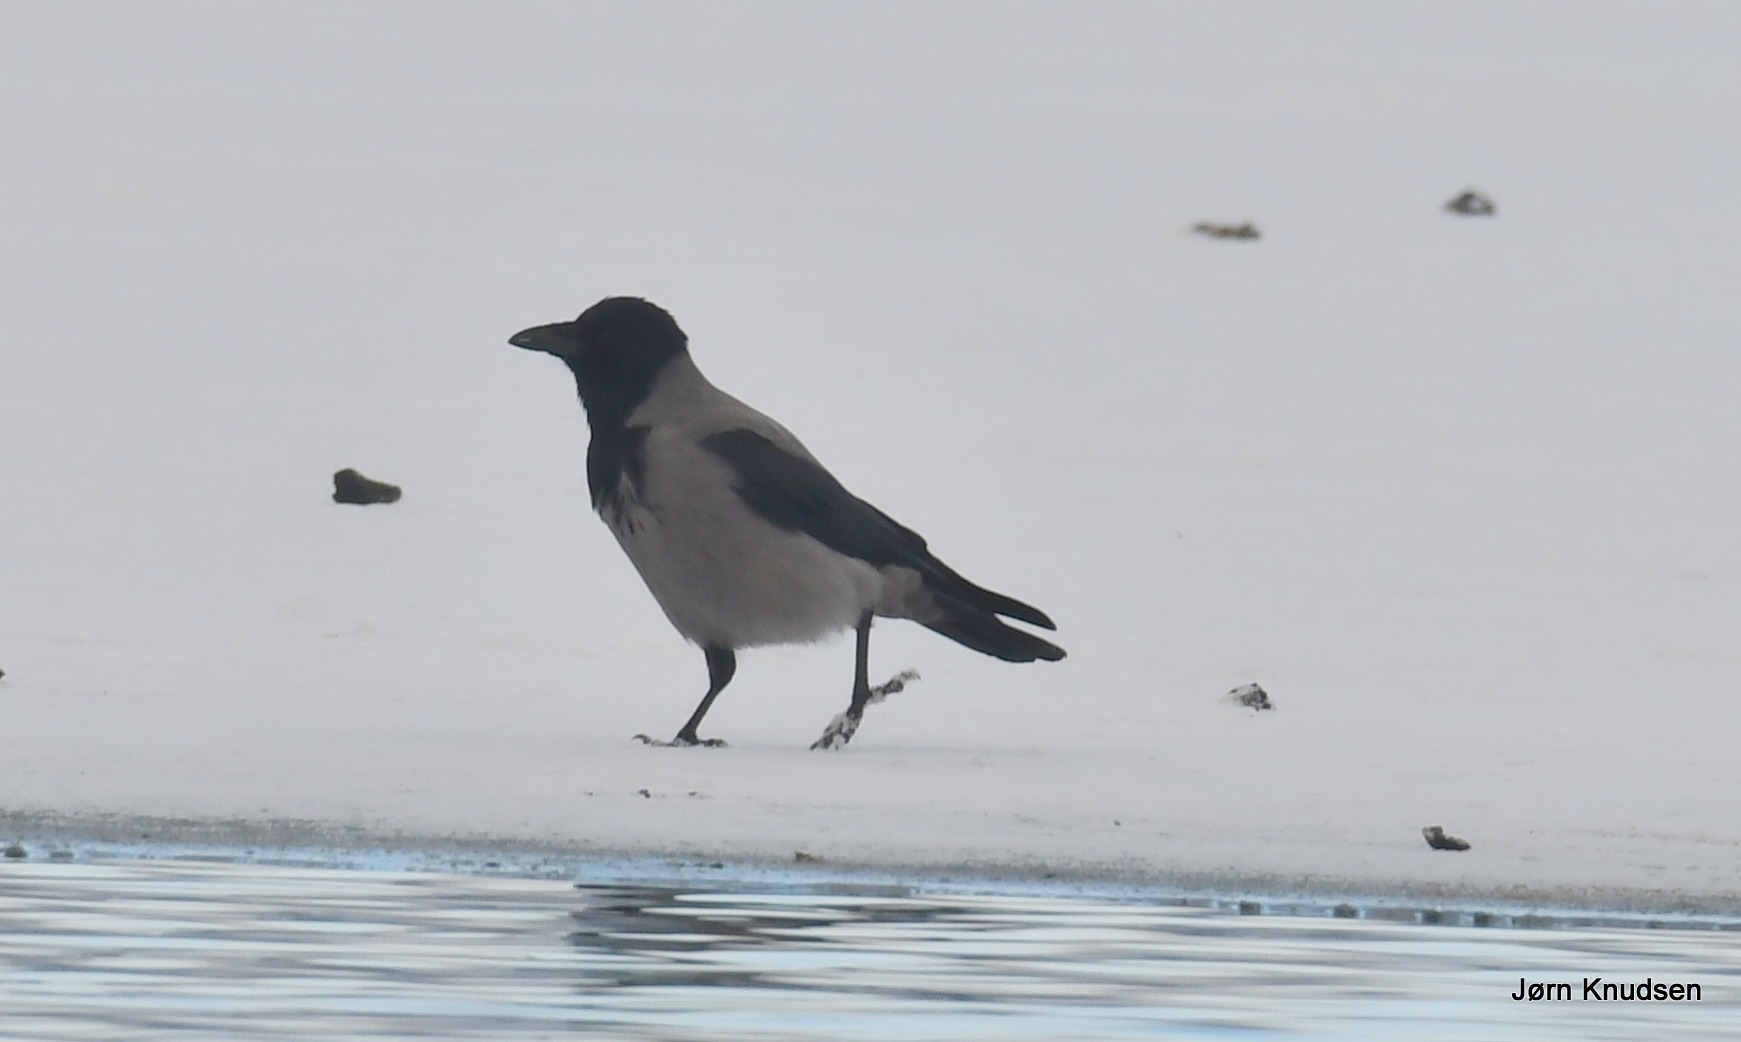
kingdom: Animalia
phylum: Chordata
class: Aves
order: Passeriformes
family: Corvidae
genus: Corvus
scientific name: Corvus cornix
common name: Gråkrage
